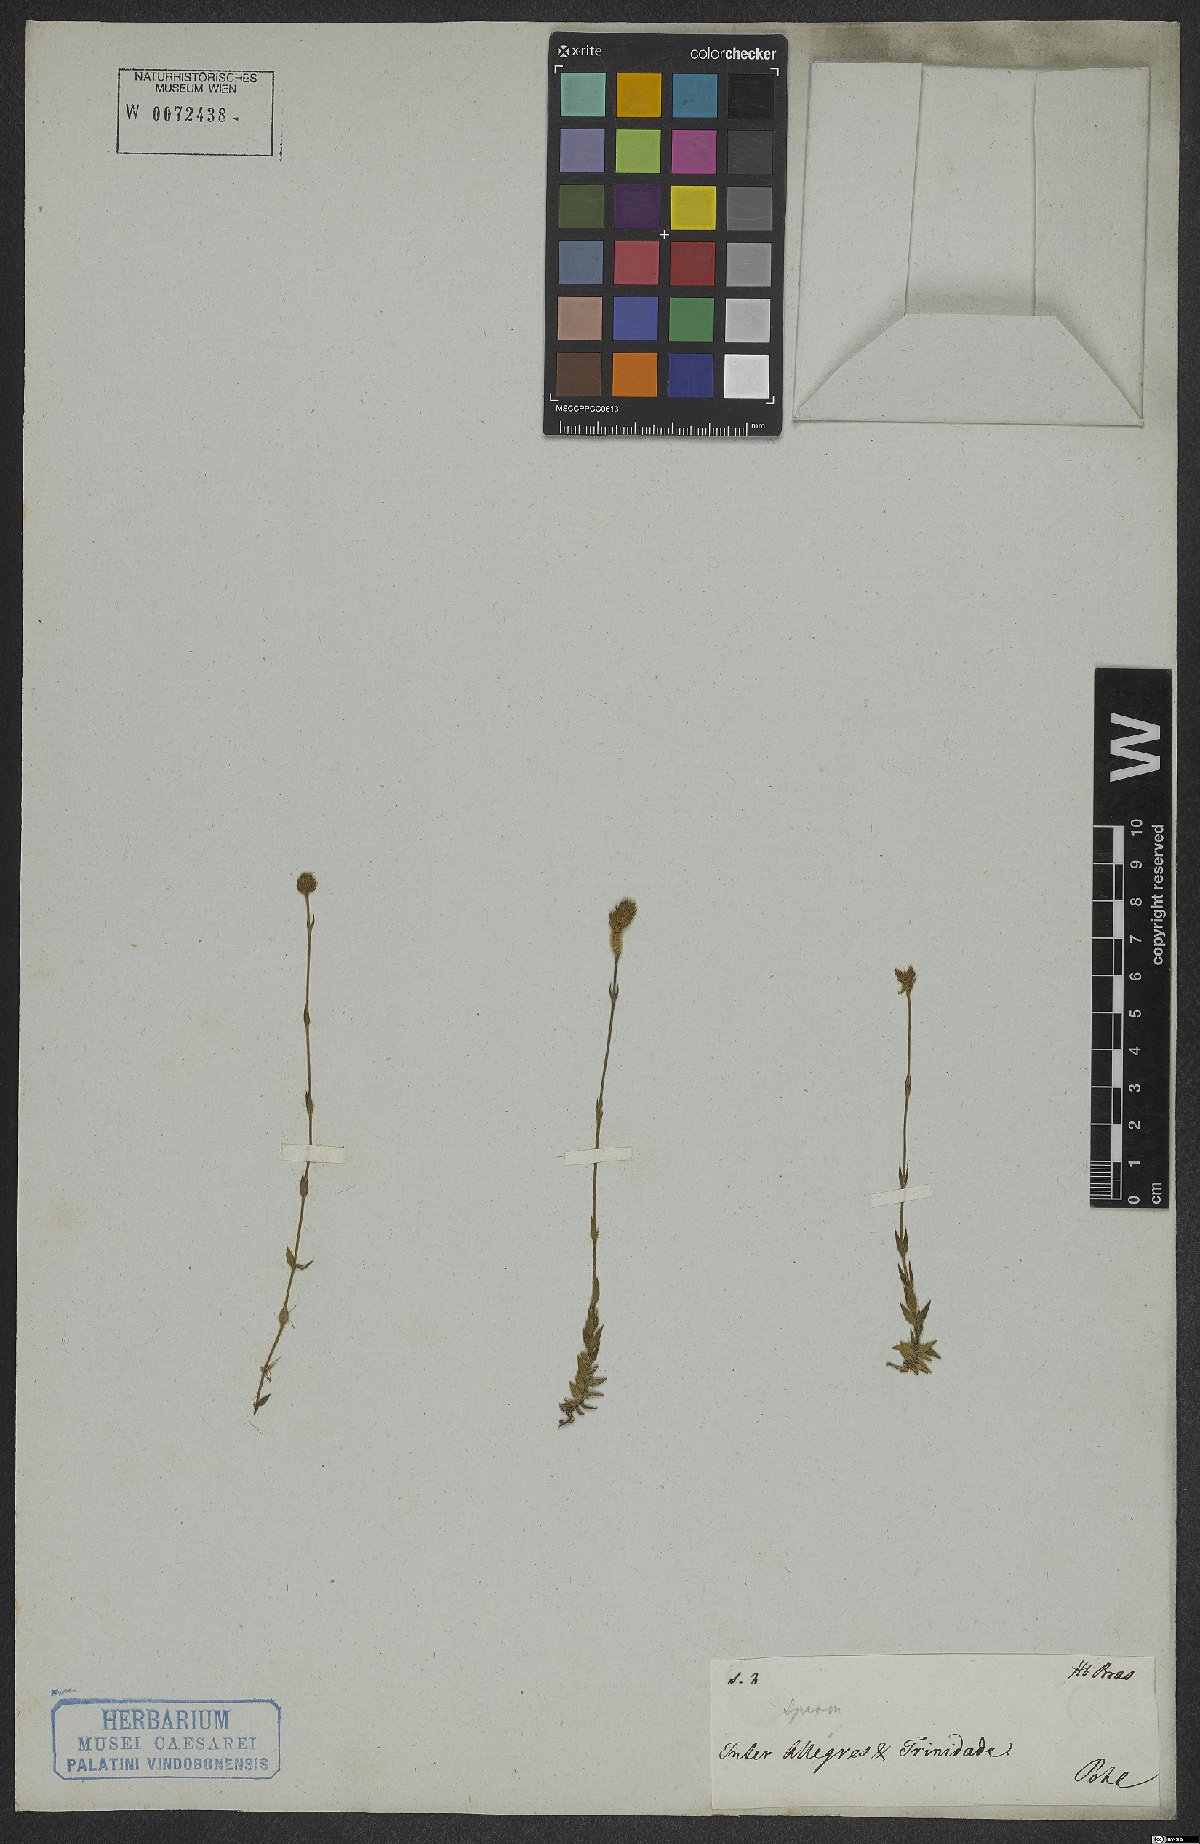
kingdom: Plantae
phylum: Tracheophyta
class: Magnoliopsida
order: Gentianales
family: Rubiaceae
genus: Perama
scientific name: Perama
